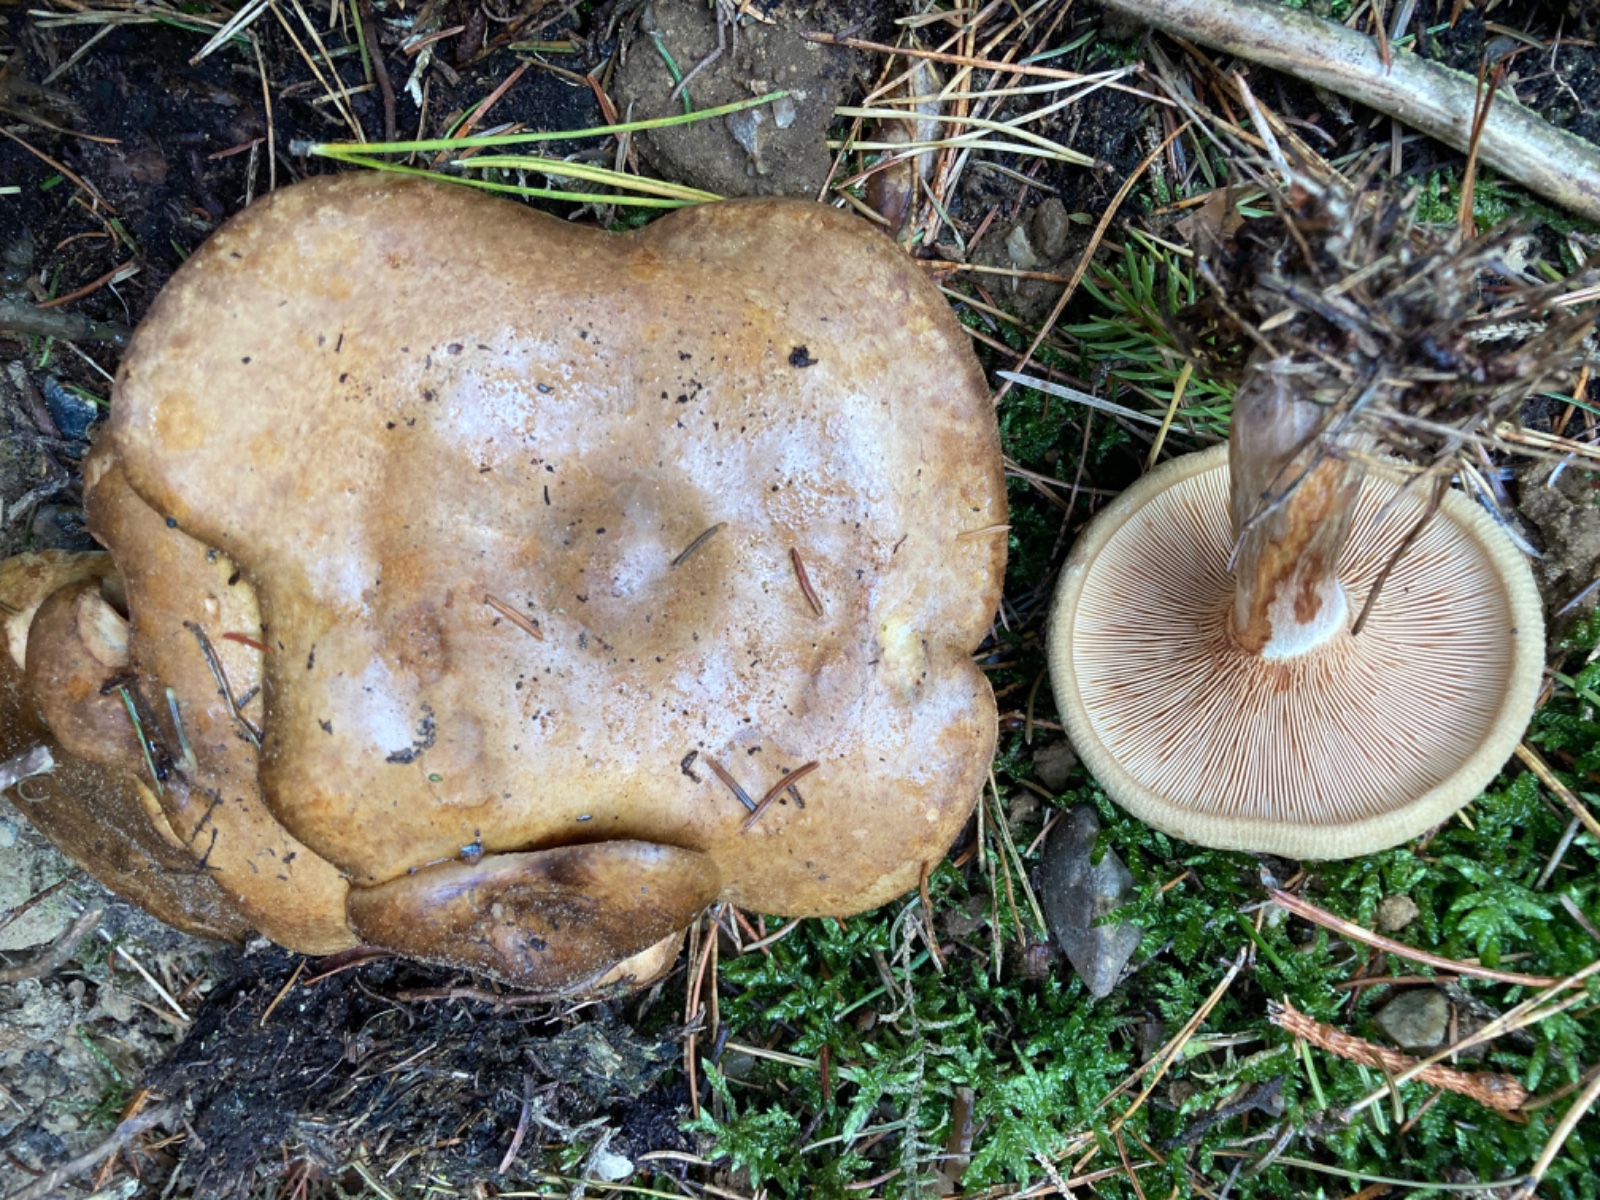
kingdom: Fungi
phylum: Basidiomycota
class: Agaricomycetes
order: Boletales
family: Paxillaceae
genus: Paxillus
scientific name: Paxillus involutus
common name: almindelig netbladhat
